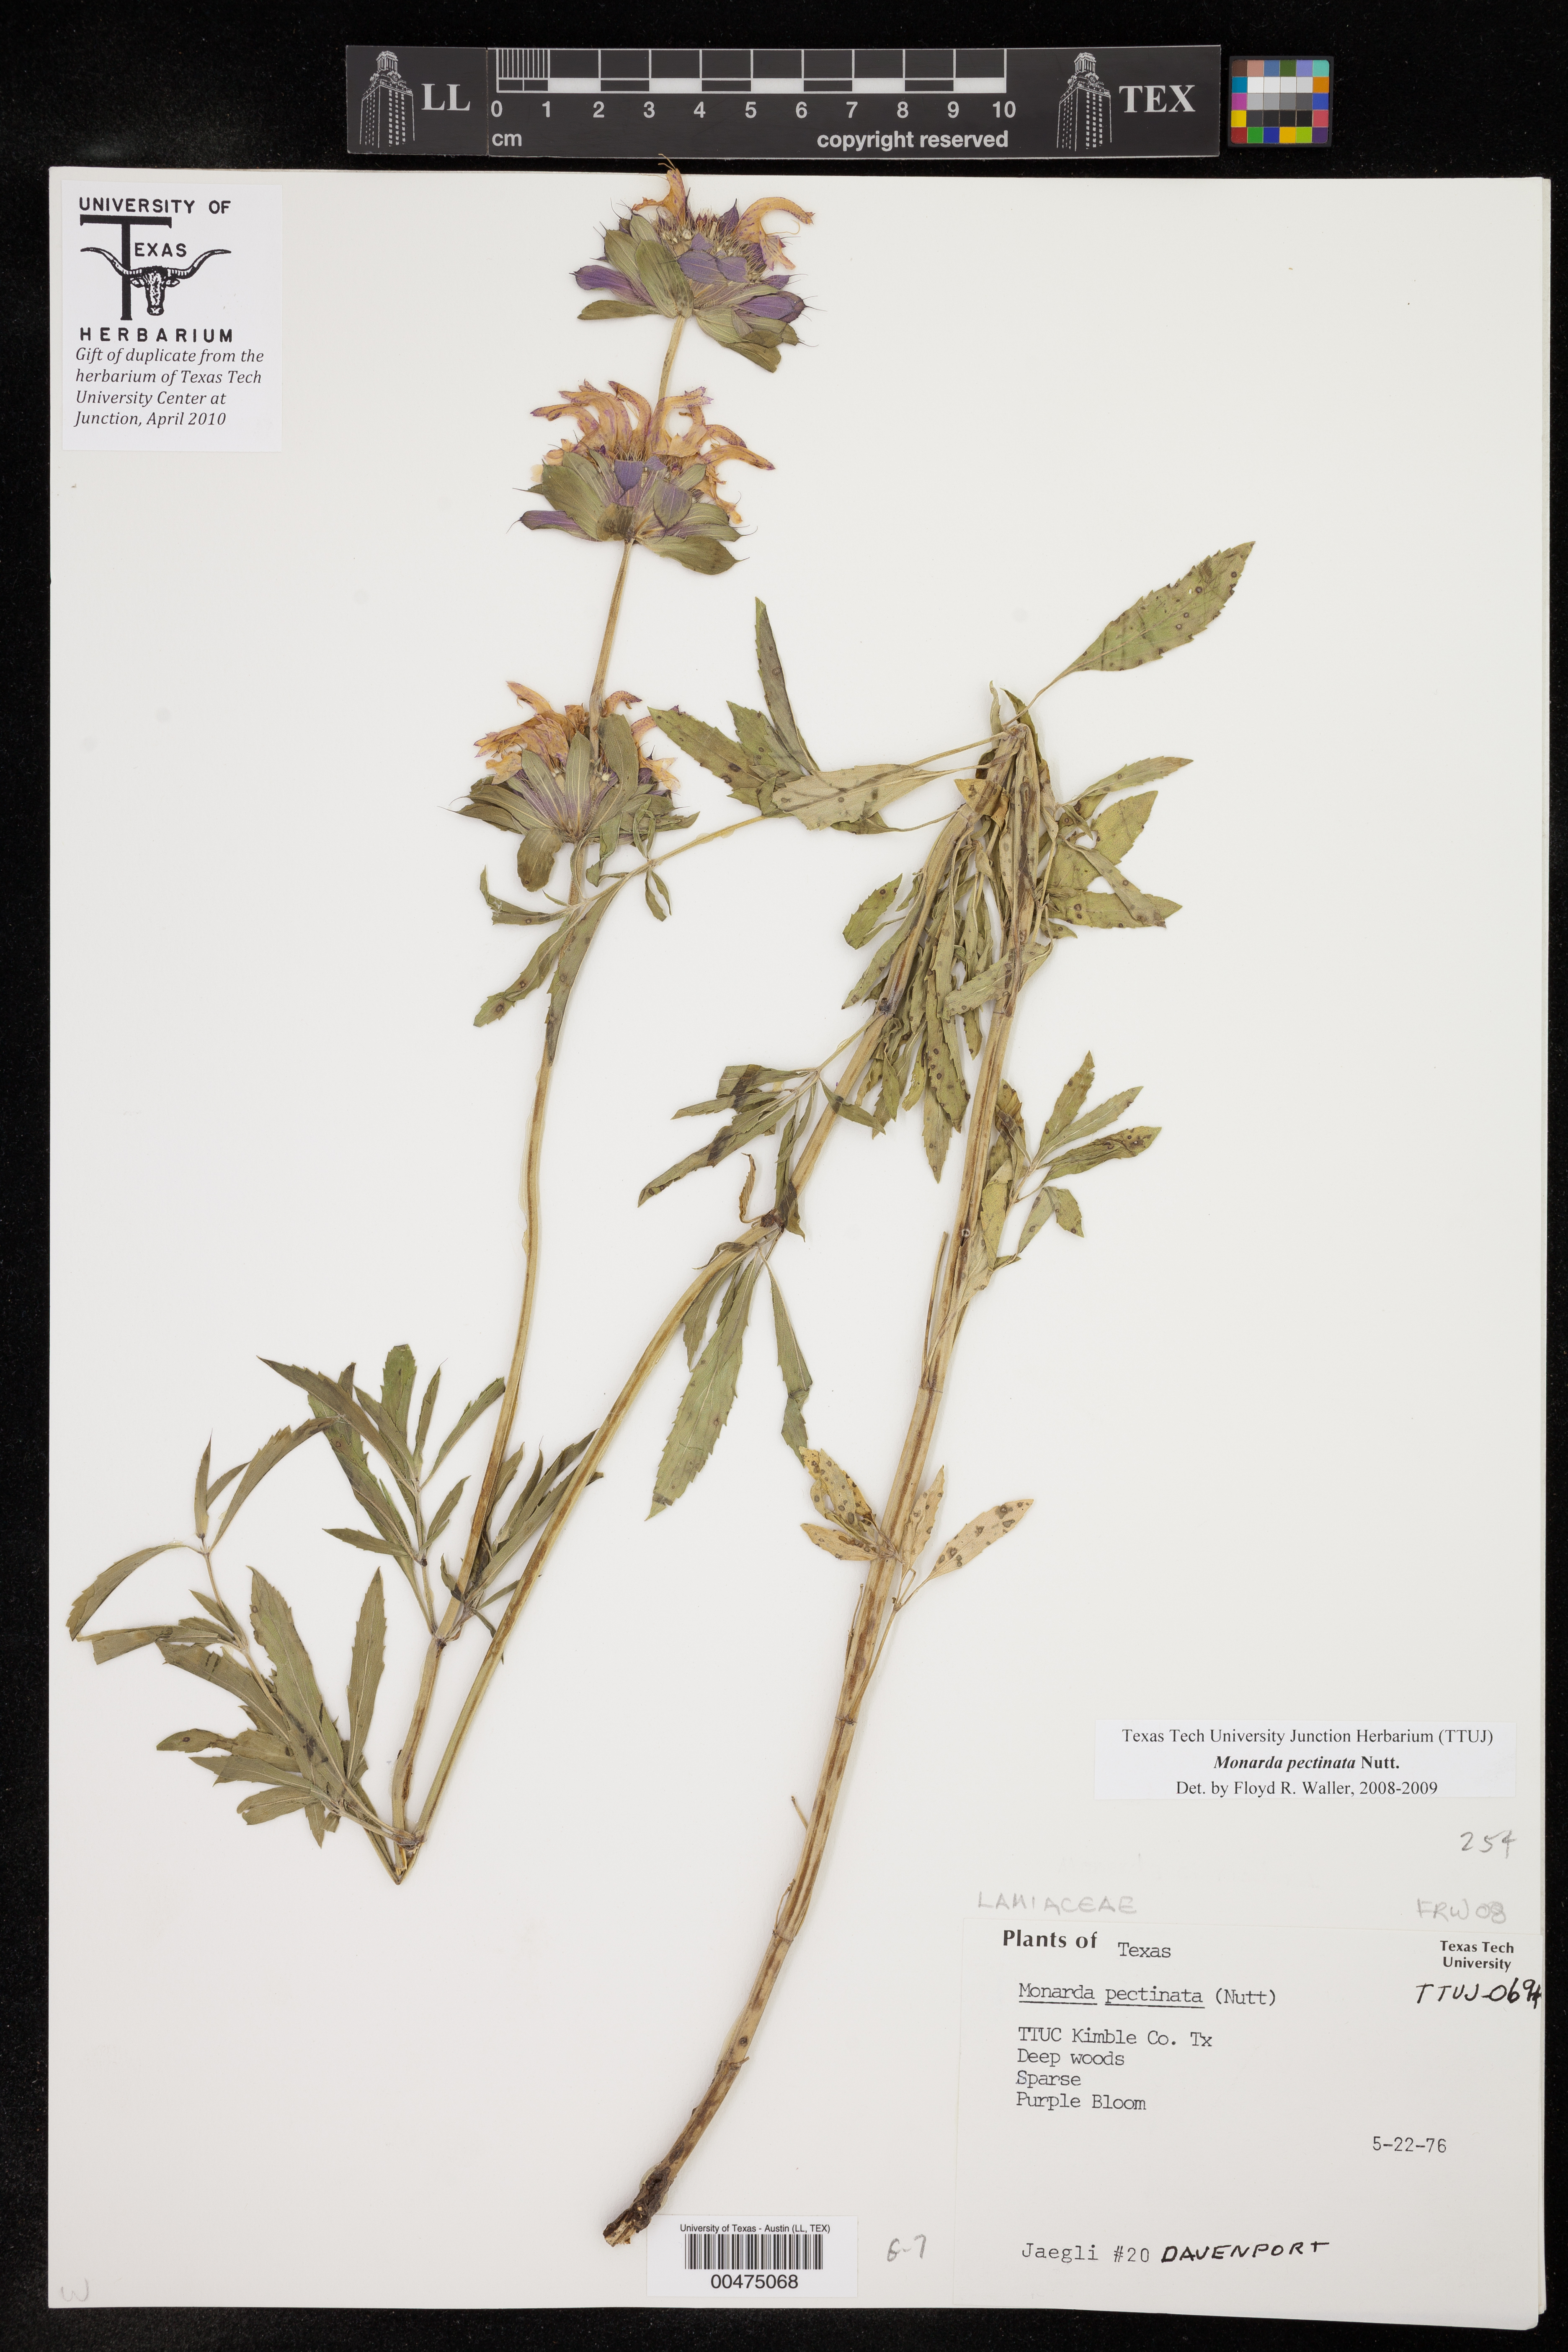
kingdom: Plantae
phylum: Tracheophyta
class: Magnoliopsida
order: Lamiales
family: Lamiaceae
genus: Monarda
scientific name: Monarda pectinata
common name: Plains beebalm
